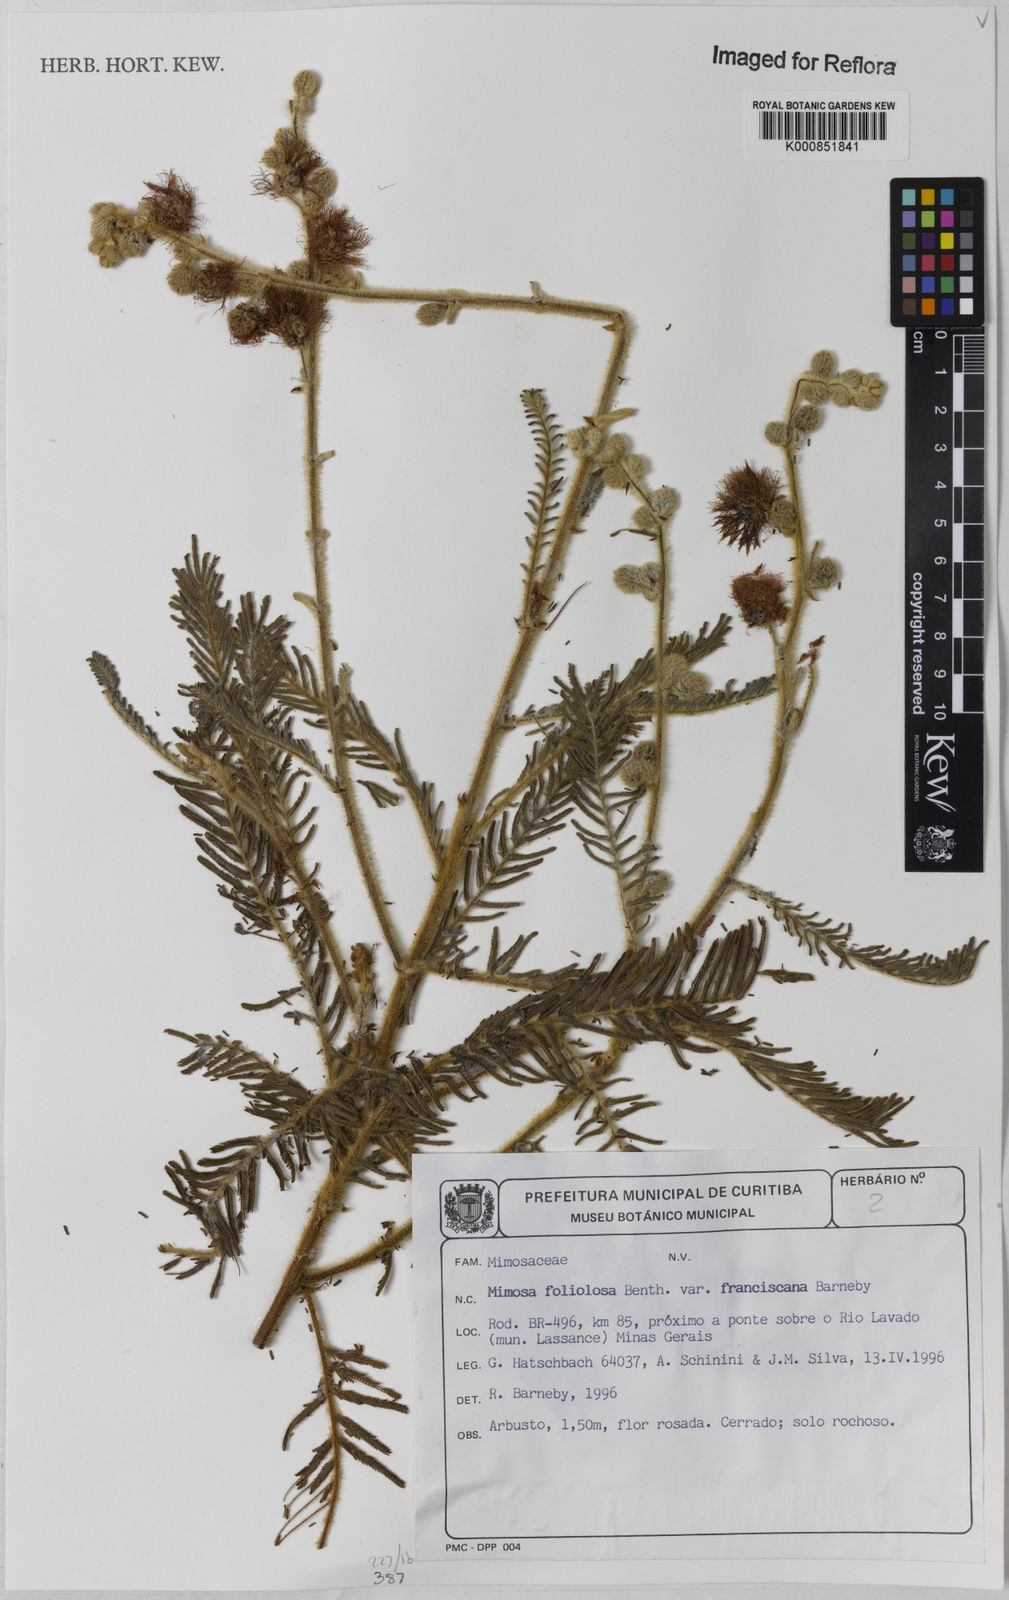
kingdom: Plantae
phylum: Tracheophyta
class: Magnoliopsida
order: Fabales
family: Fabaceae
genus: Mimosa
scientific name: Mimosa foliolosa
